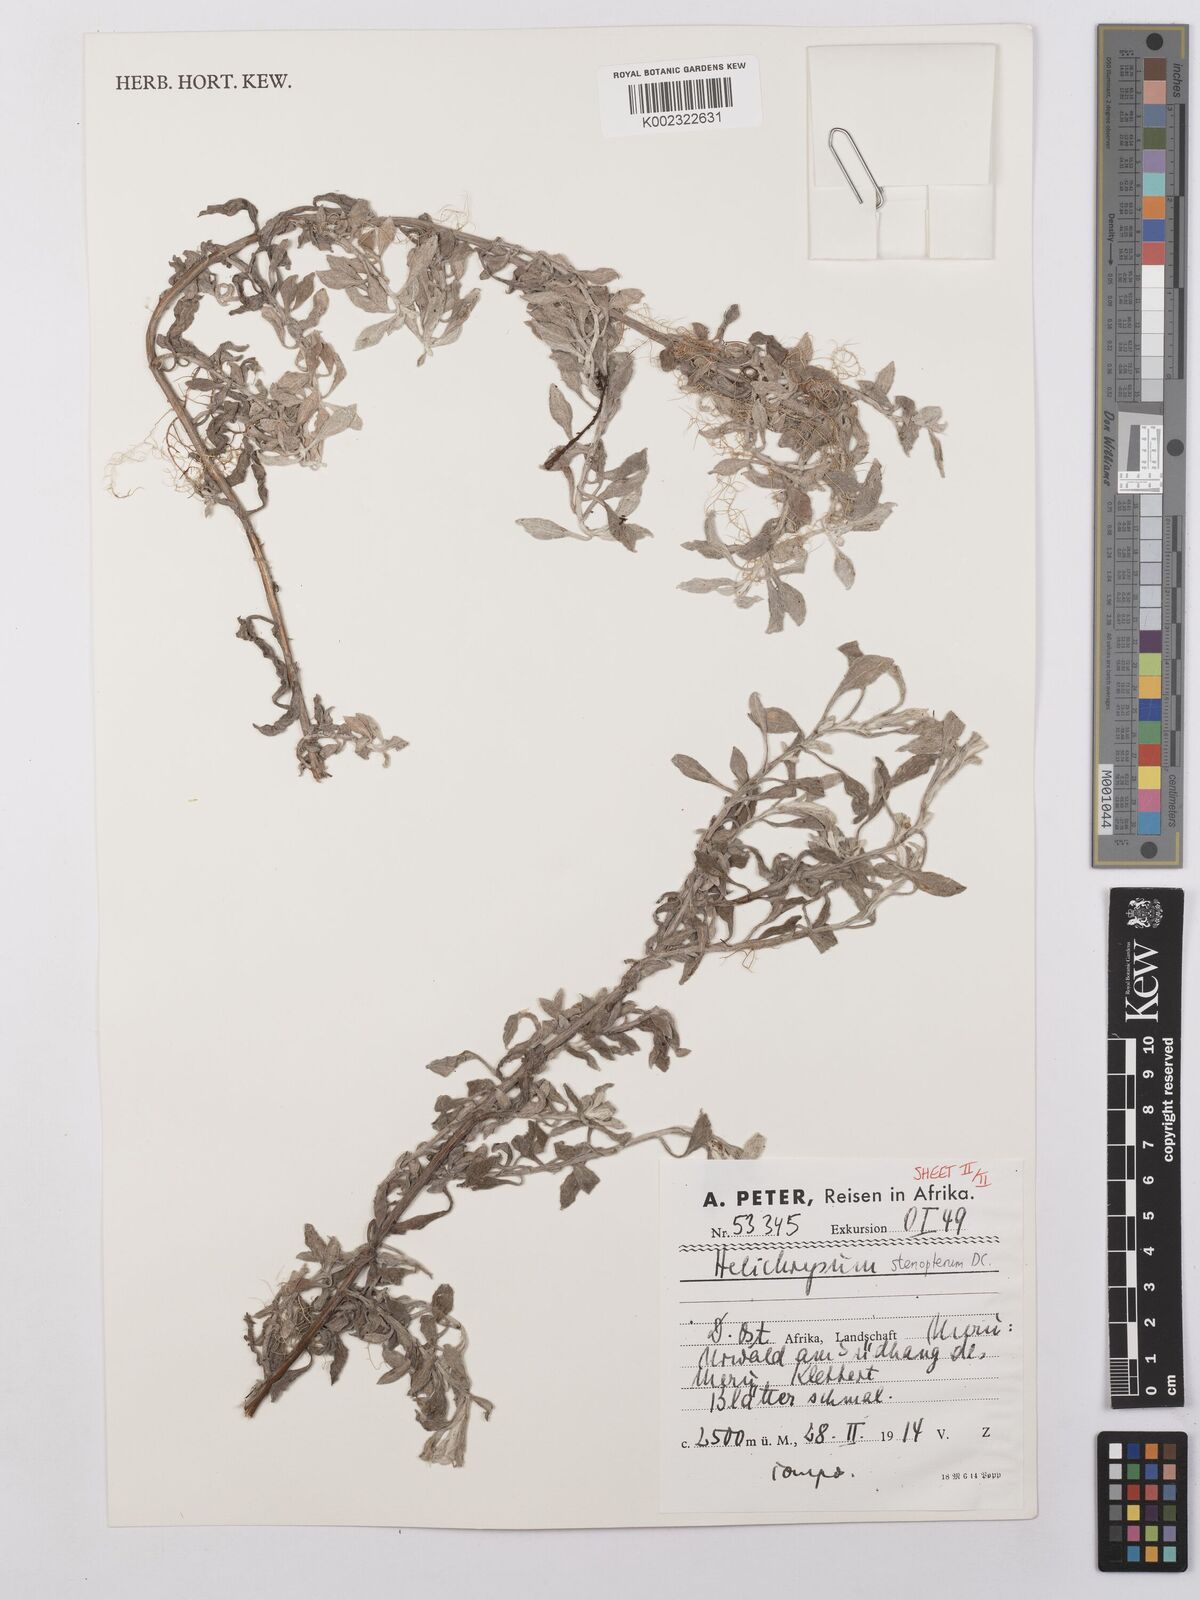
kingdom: Plantae
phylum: Tracheophyta
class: Magnoliopsida
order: Asterales
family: Asteraceae
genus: Helichrysum
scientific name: Helichrysum stenopterum
